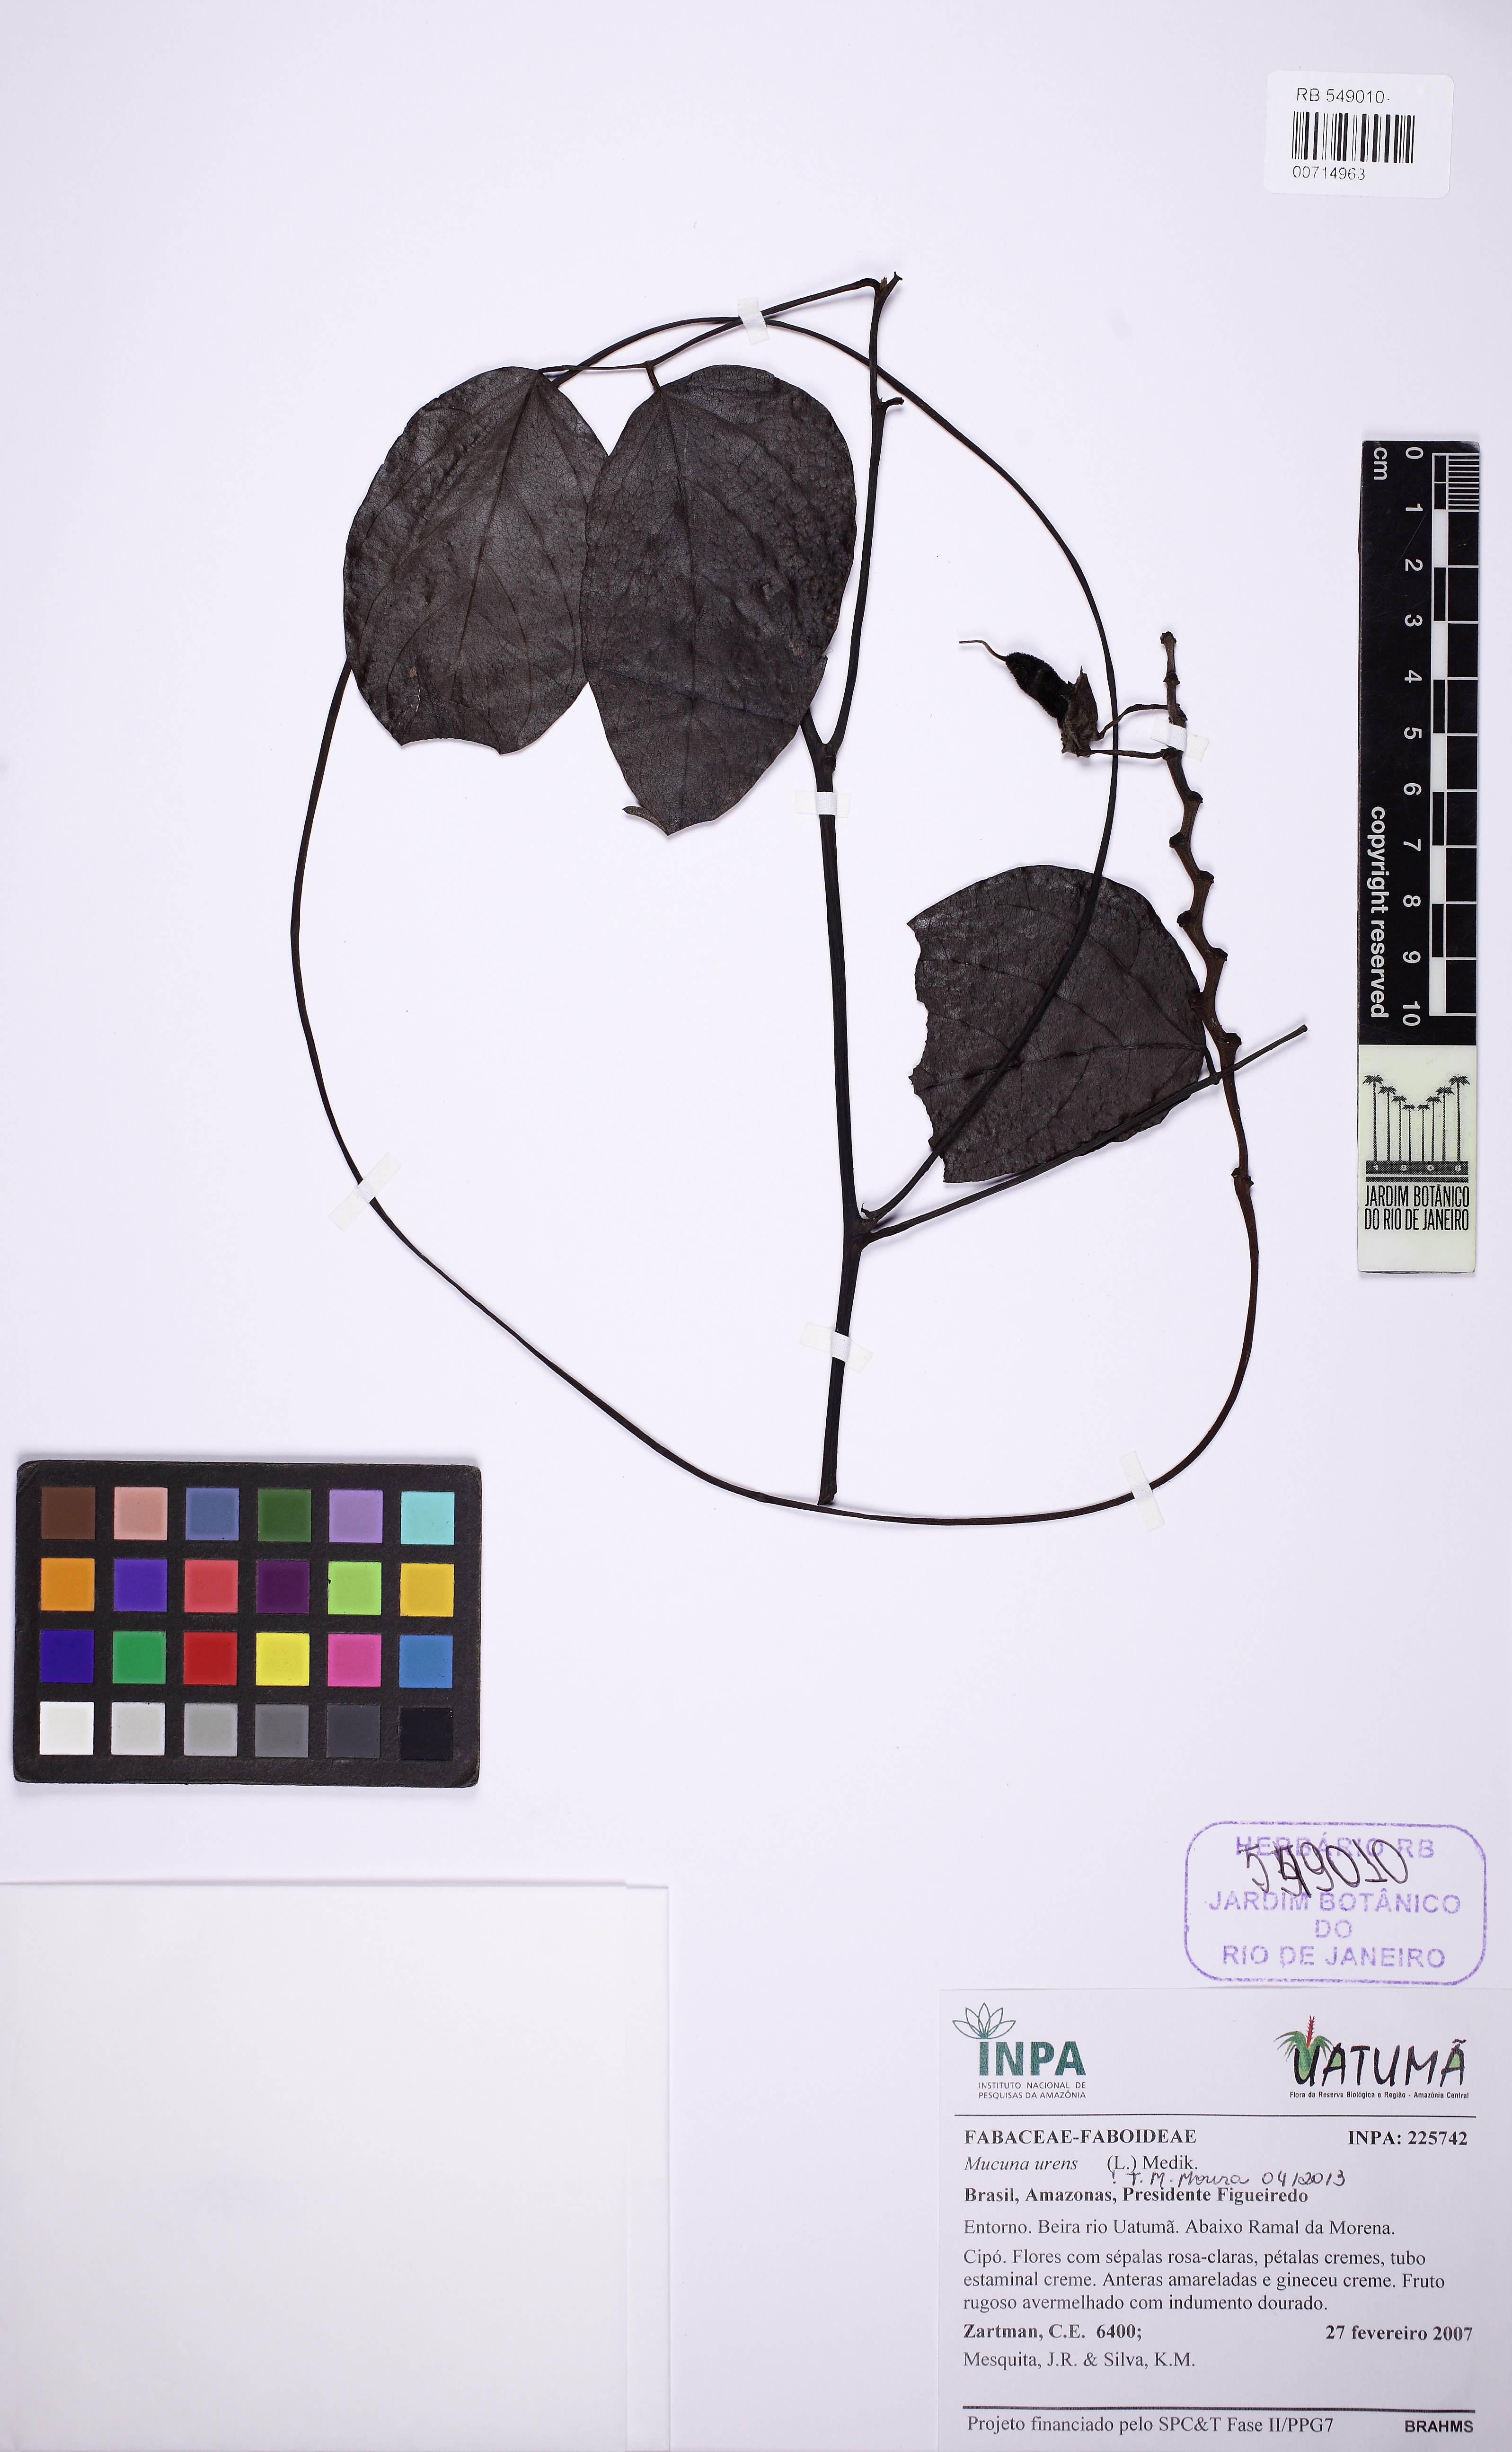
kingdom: Plantae
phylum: Tracheophyta
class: Magnoliopsida
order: Fabales
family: Fabaceae
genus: Mucuna
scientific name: Mucuna urens
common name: Red hamburger bean
